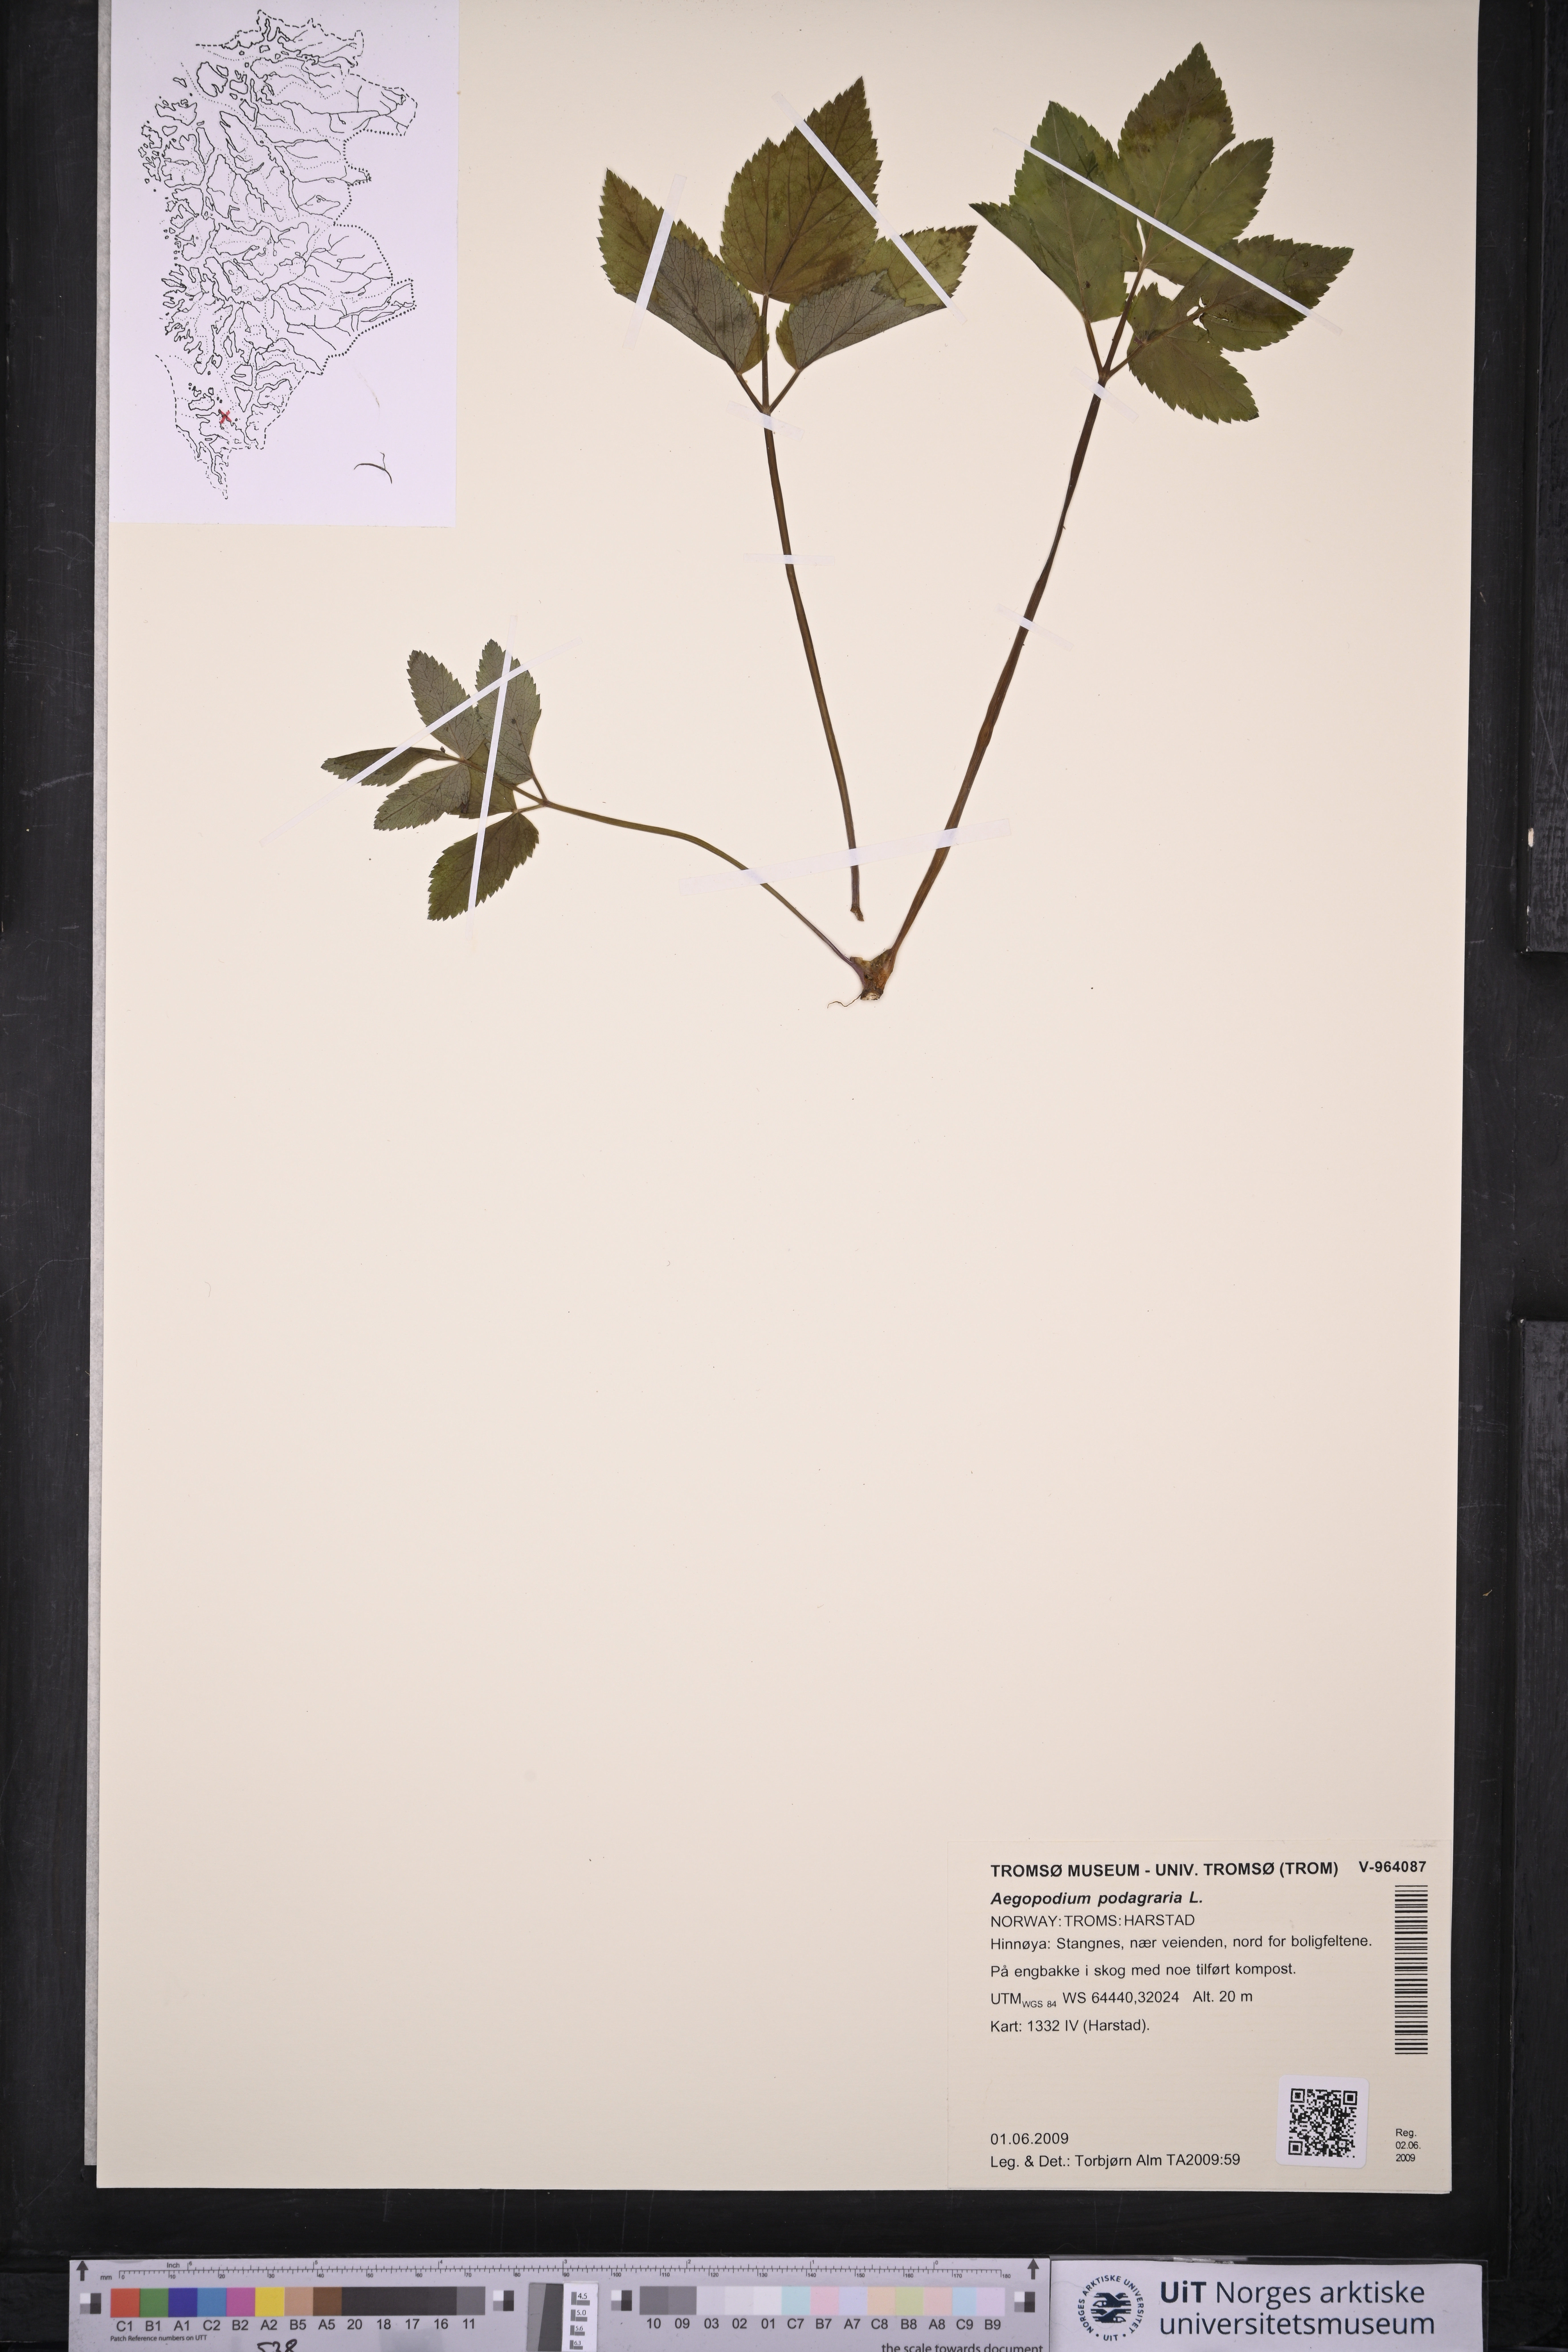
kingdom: Plantae
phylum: Tracheophyta
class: Magnoliopsida
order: Apiales
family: Apiaceae
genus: Aegopodium
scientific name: Aegopodium podagraria
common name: Ground-elder
